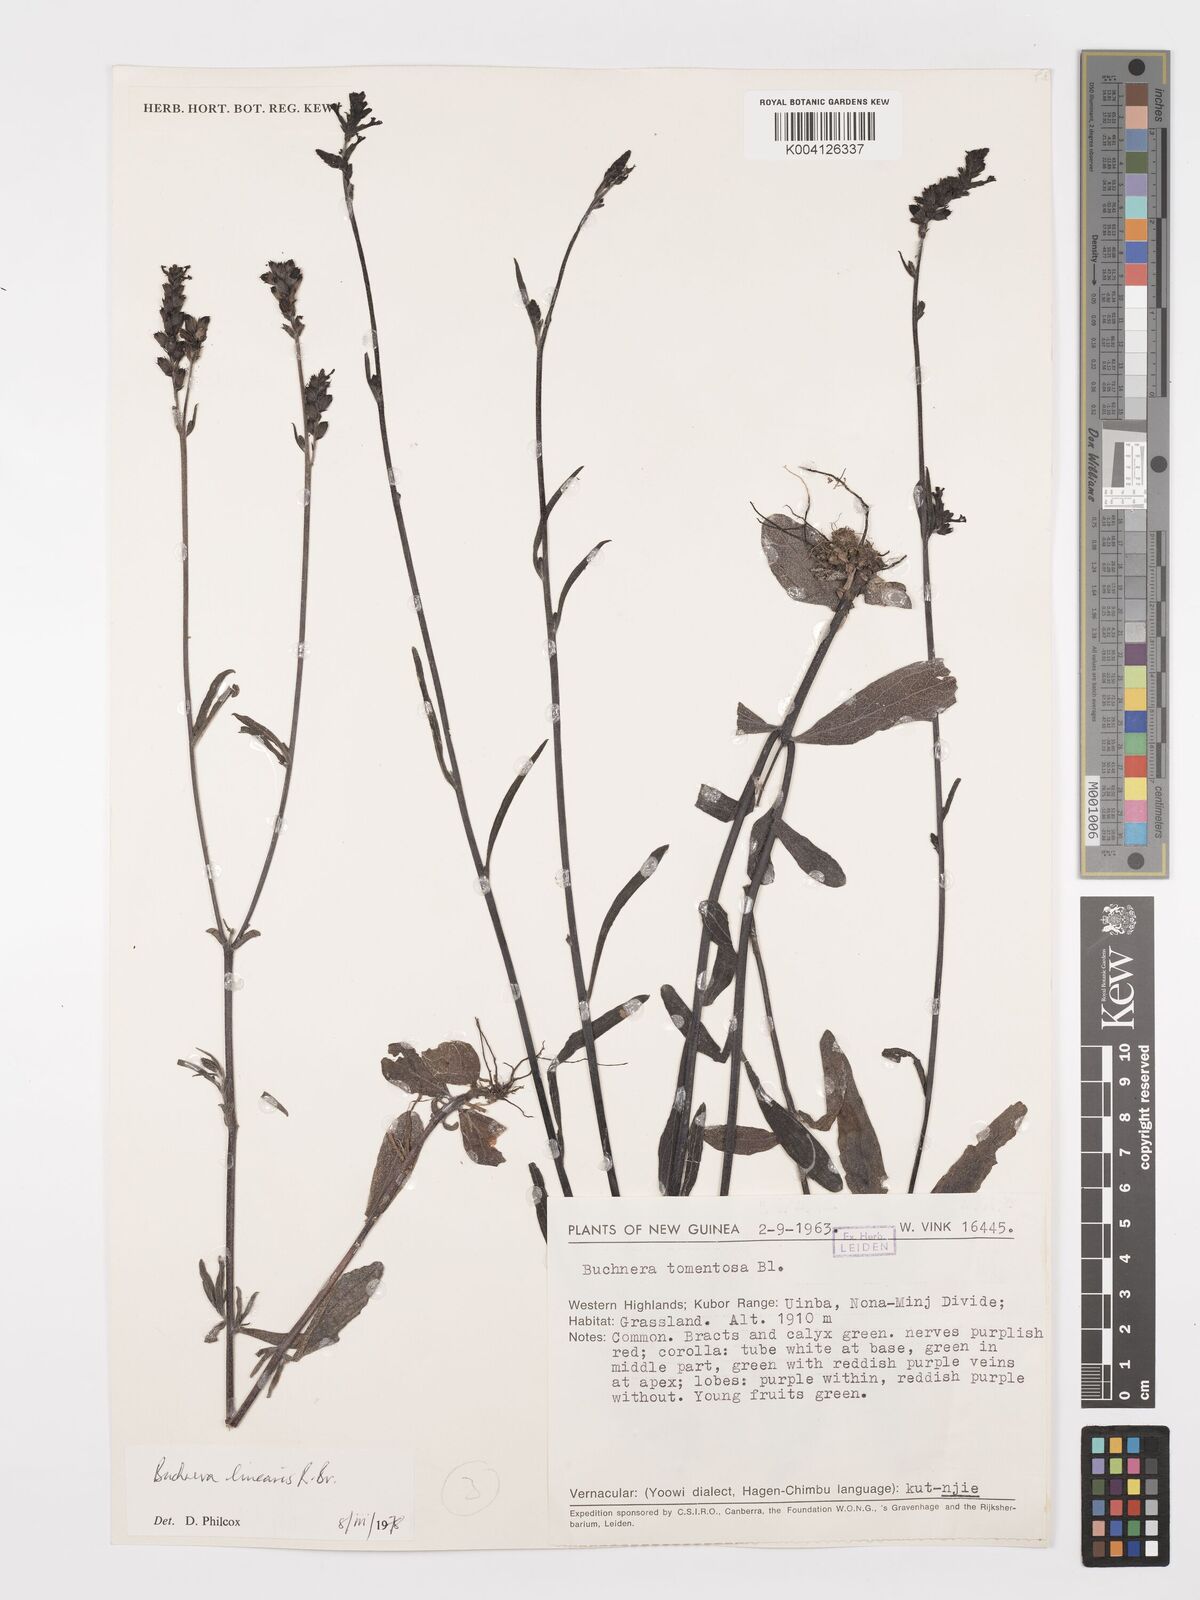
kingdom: Plantae
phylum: Tracheophyta
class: Magnoliopsida
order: Lamiales
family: Orobanchaceae
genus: Buchnera
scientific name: Buchnera linearis
